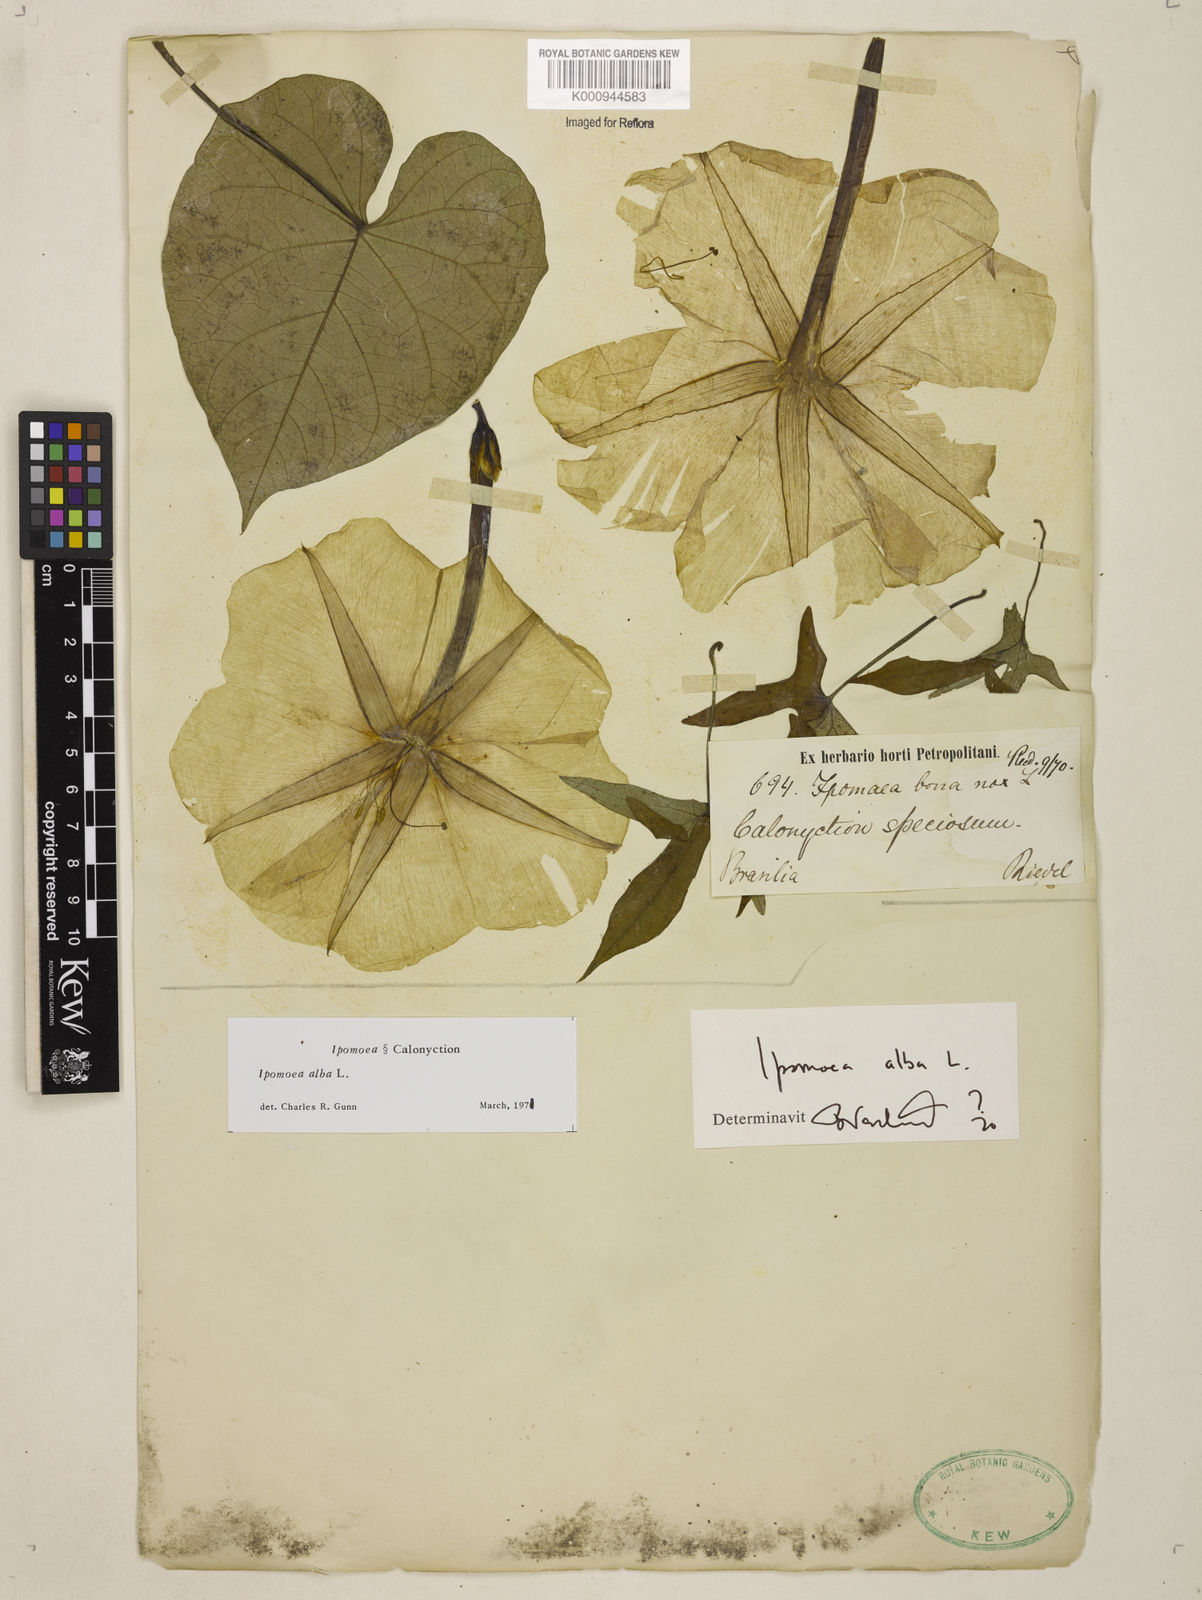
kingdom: Plantae
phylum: Tracheophyta
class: Magnoliopsida
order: Solanales
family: Convolvulaceae
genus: Ipomoea
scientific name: Ipomoea alba
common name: Moonflower
